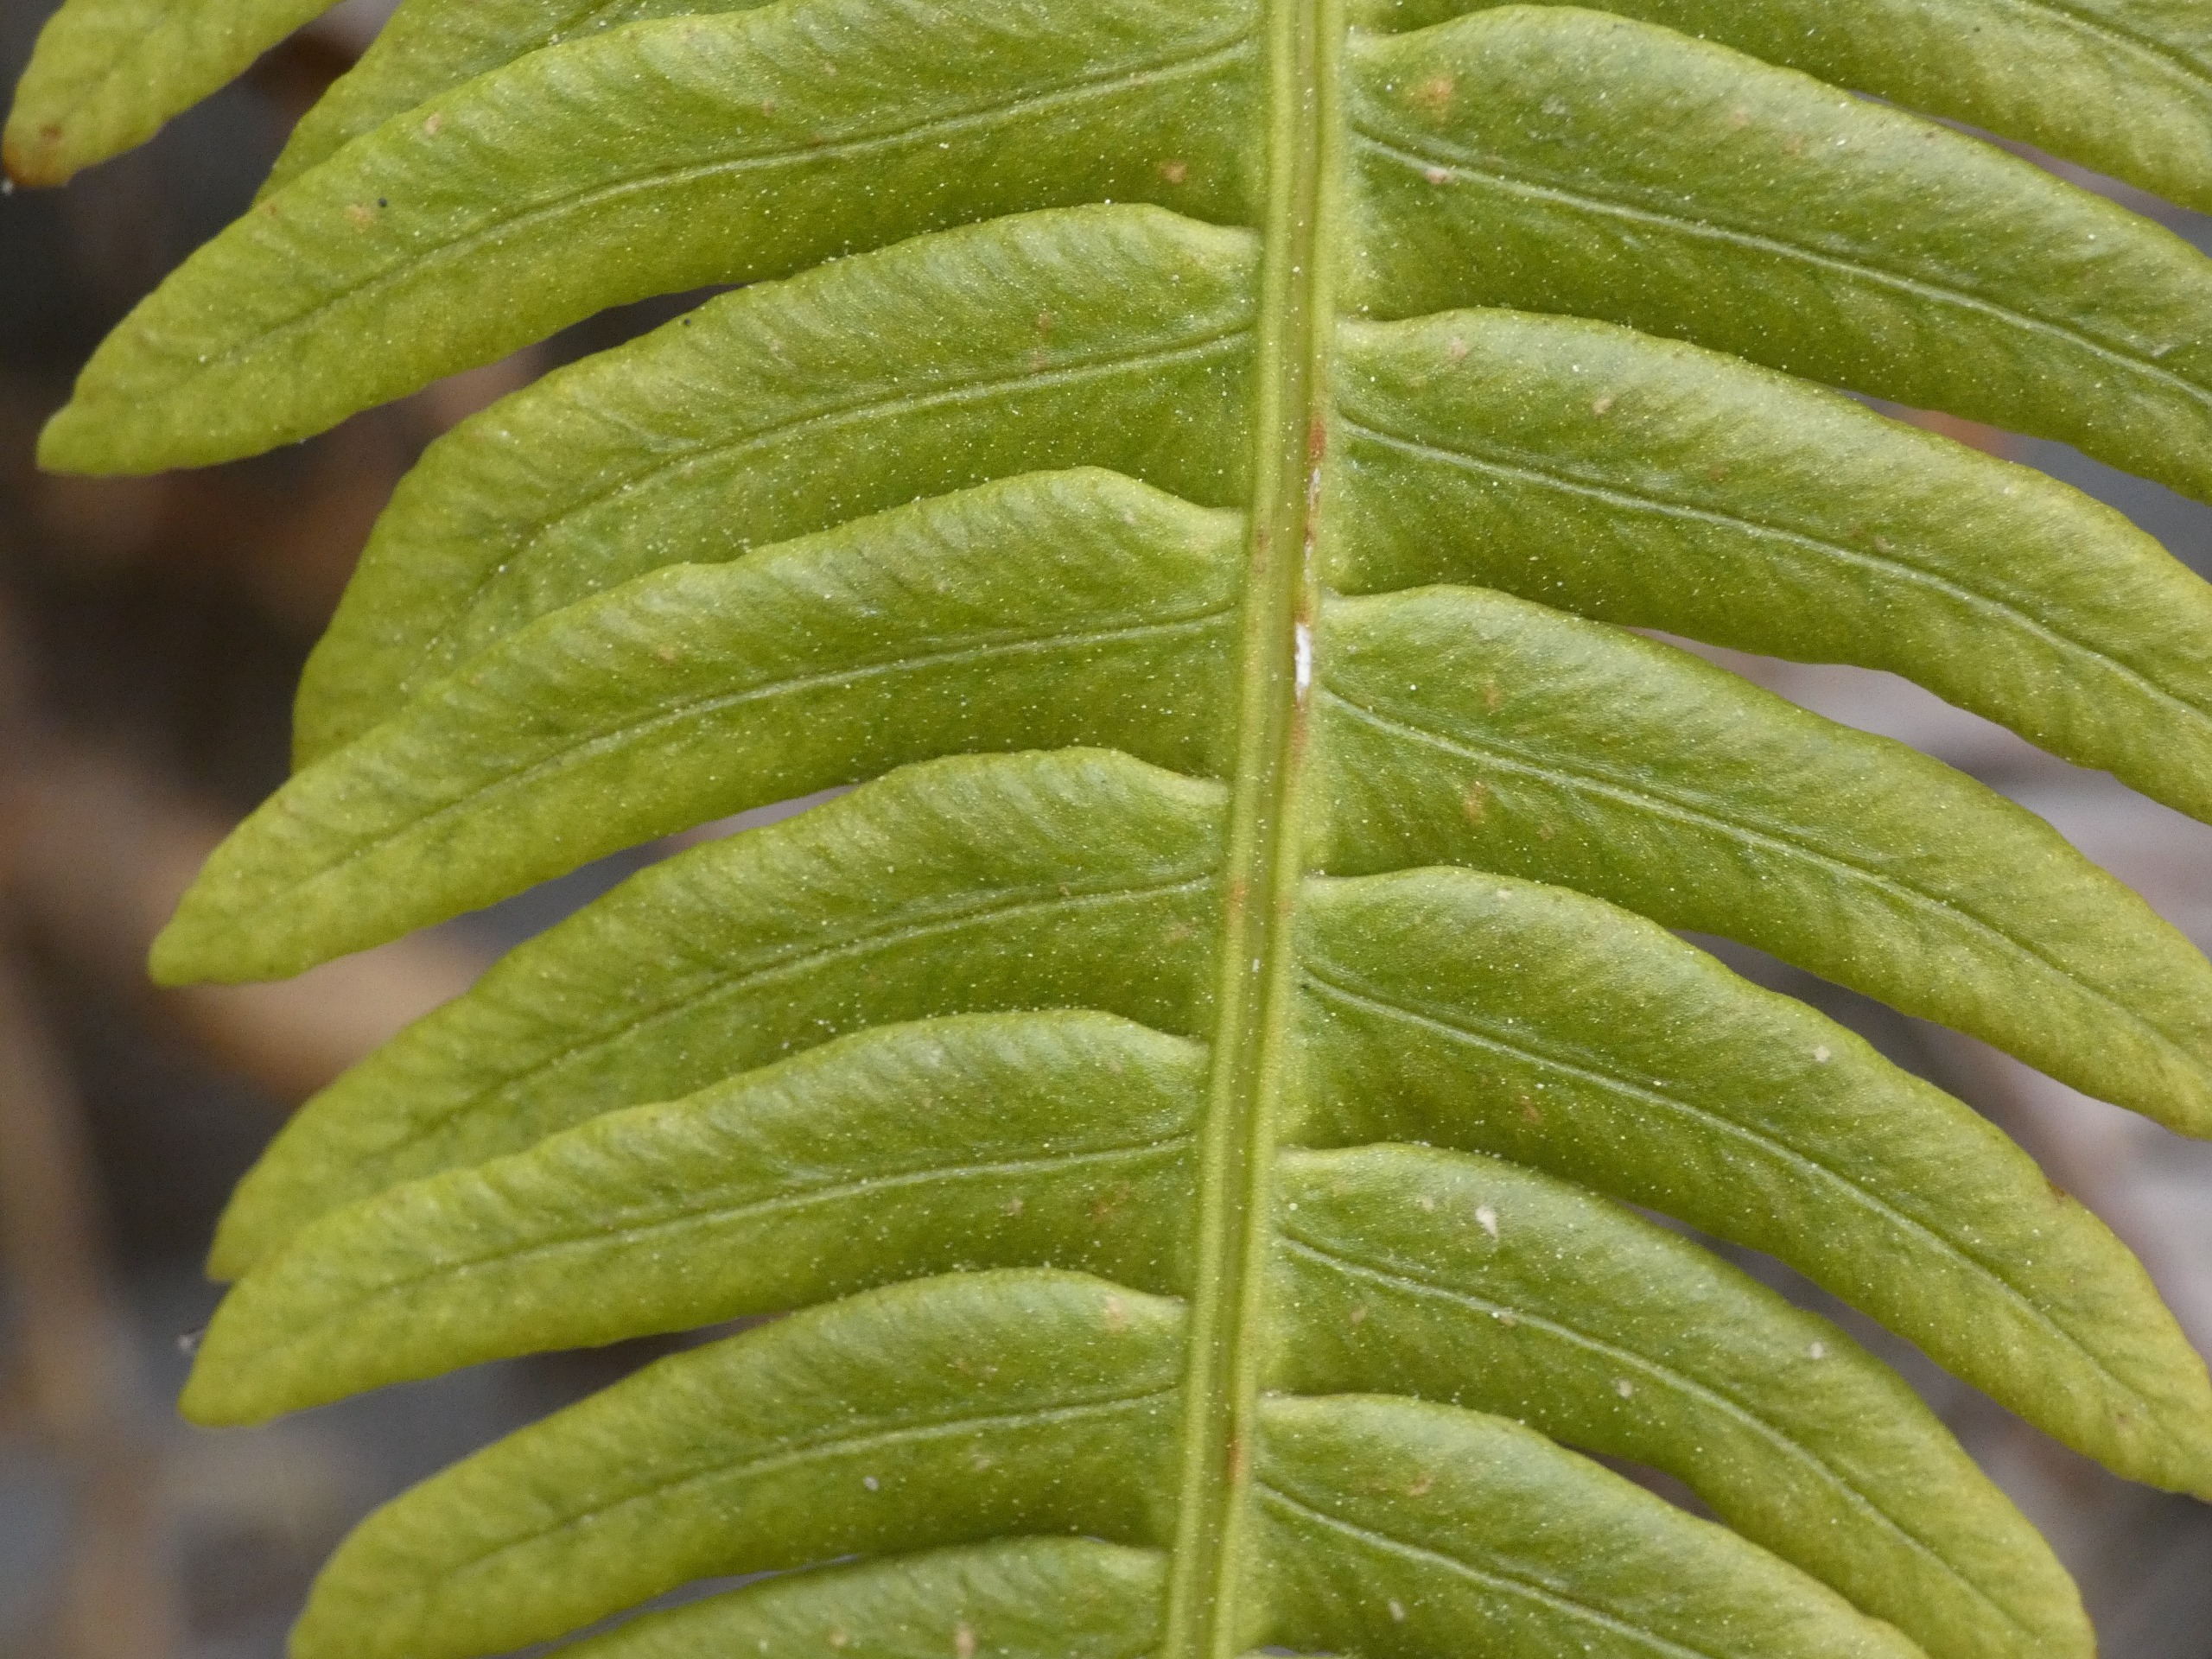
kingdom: Plantae
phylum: Tracheophyta
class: Polypodiopsida
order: Polypodiales
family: Blechnaceae
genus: Struthiopteris
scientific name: Struthiopteris spicant
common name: Kambregne
